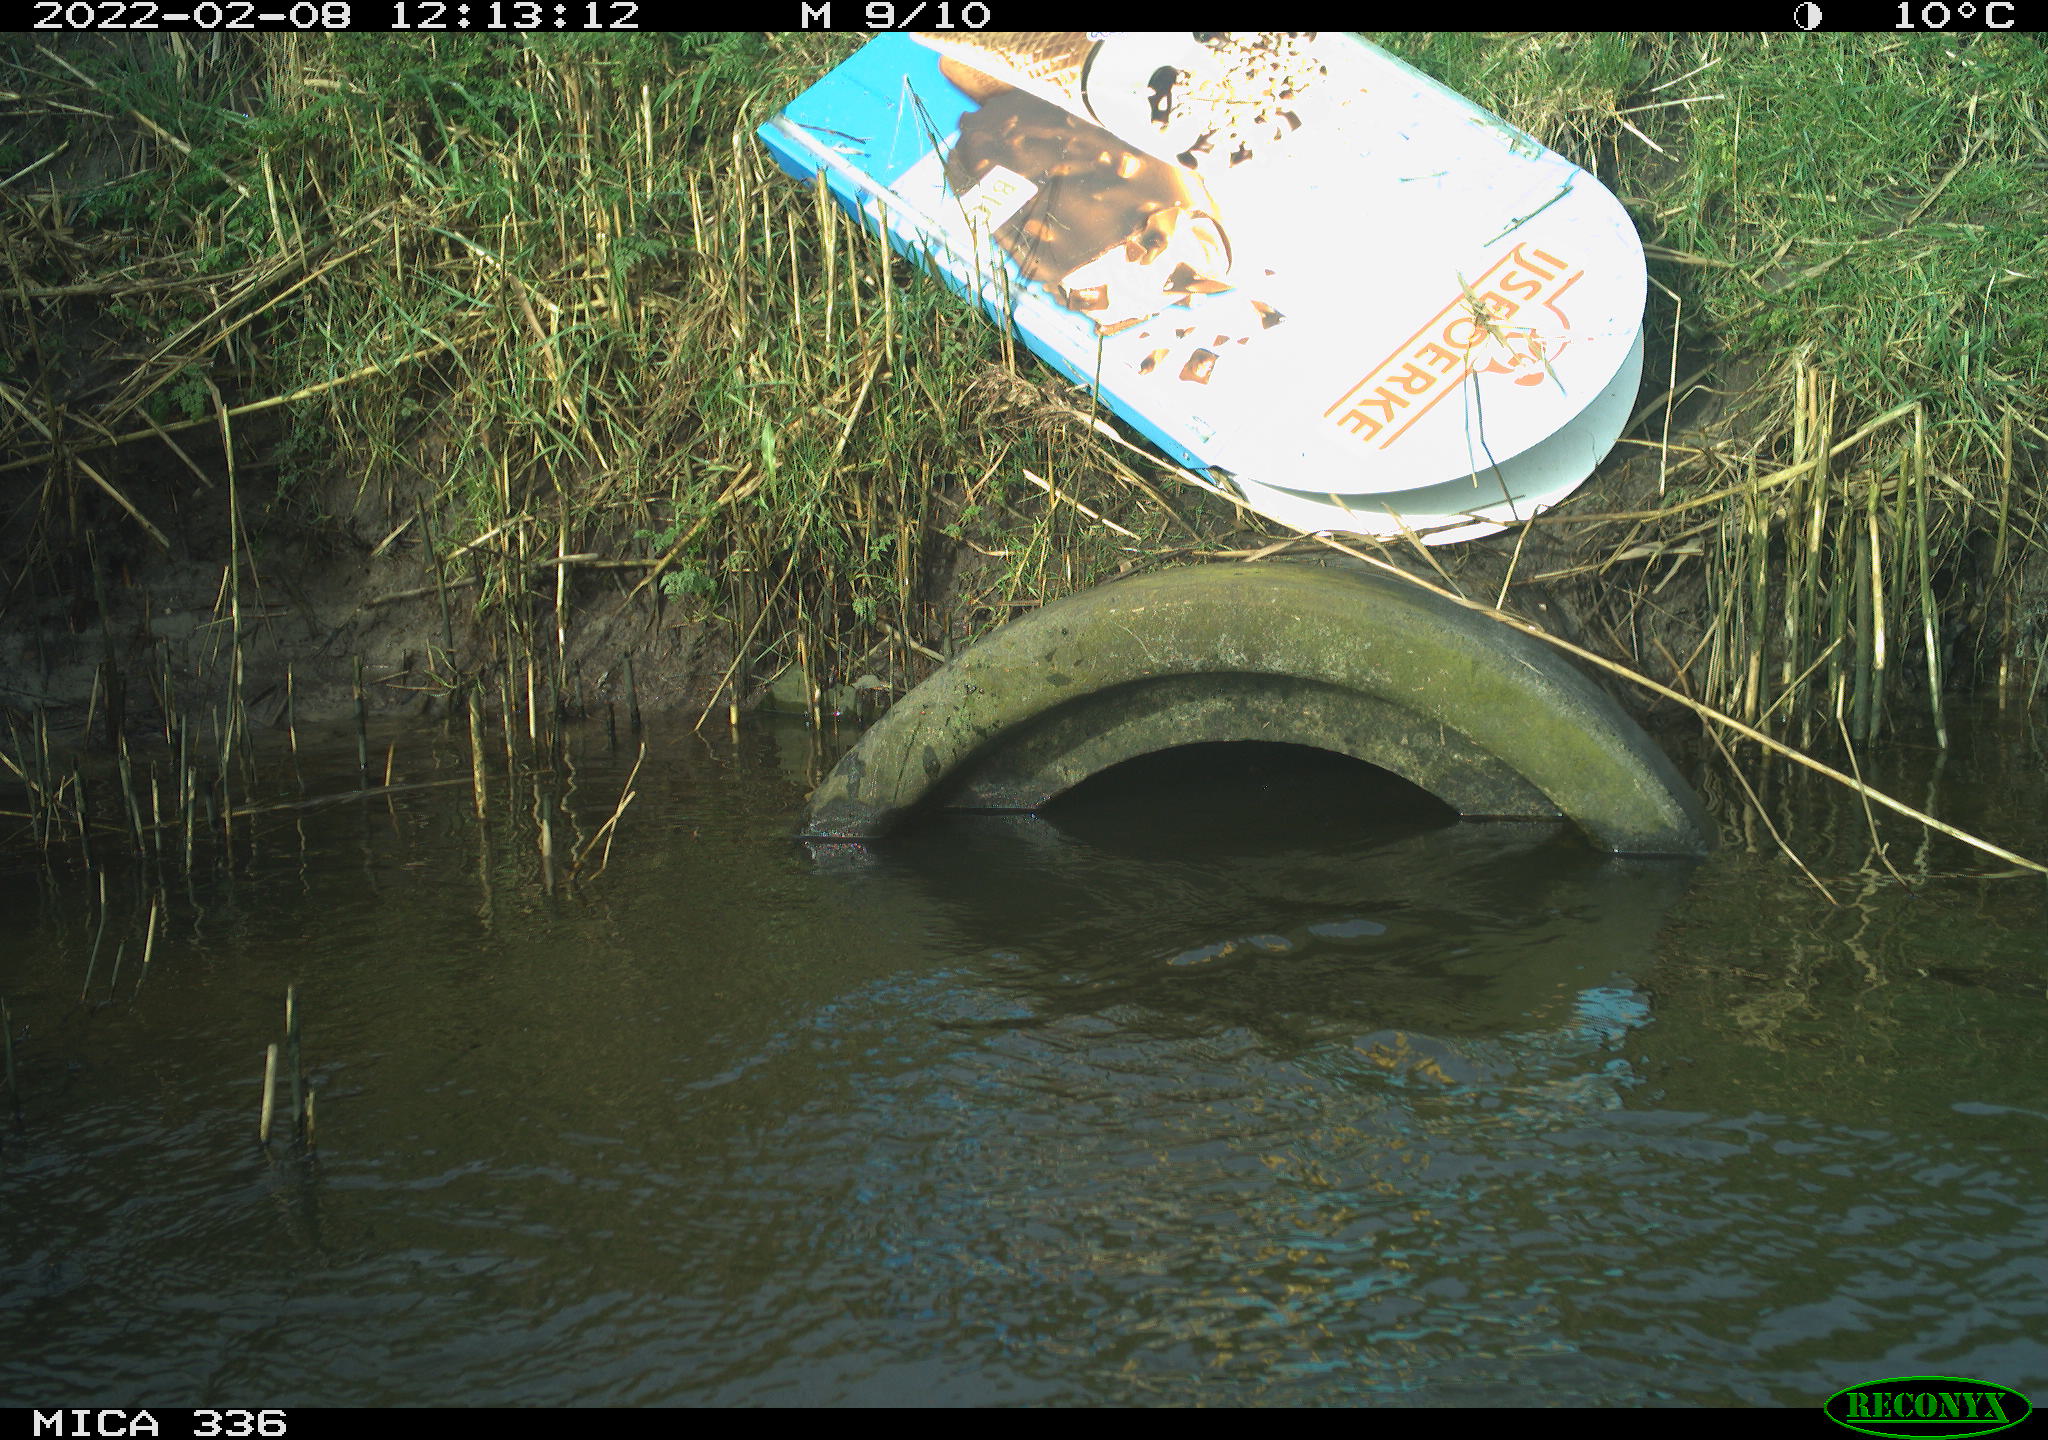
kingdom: Animalia
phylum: Chordata
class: Aves
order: Suliformes
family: Phalacrocoracidae
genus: Phalacrocorax
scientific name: Phalacrocorax carbo
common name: Great cormorant
